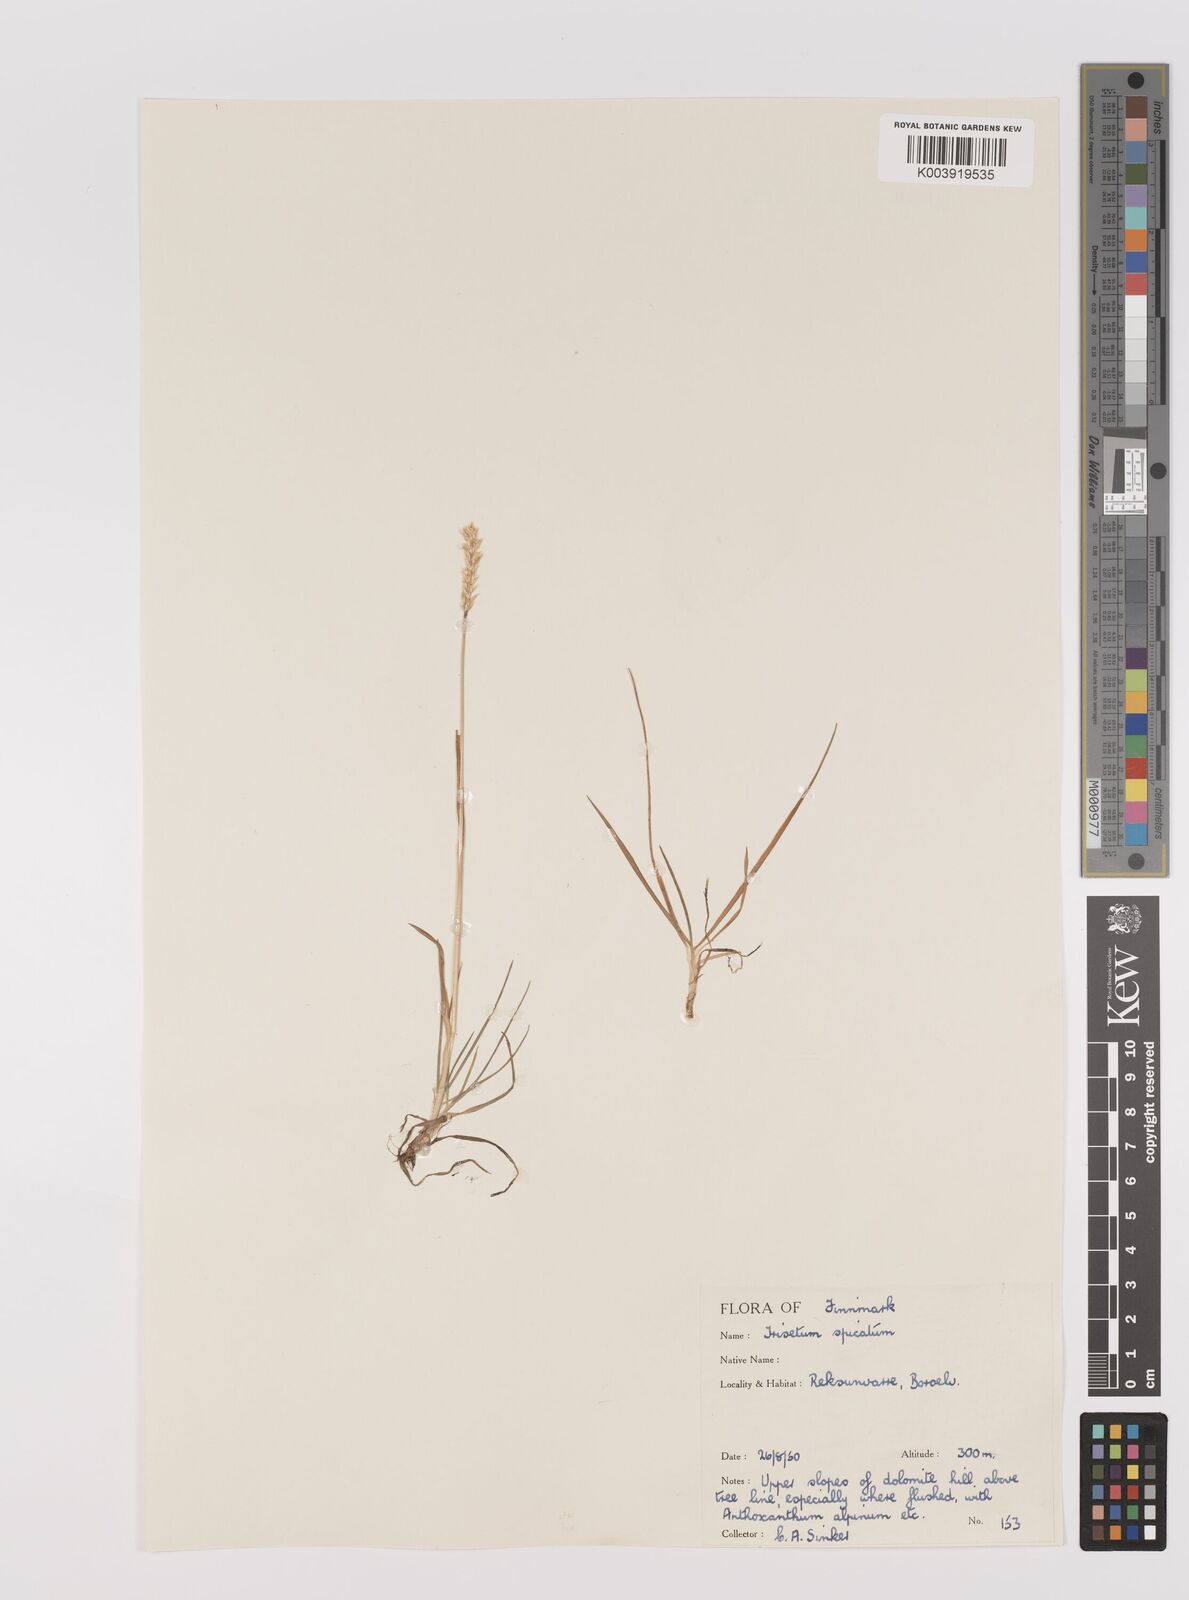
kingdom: Plantae
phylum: Tracheophyta
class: Liliopsida
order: Poales
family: Poaceae
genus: Koeleria
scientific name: Koeleria spicata
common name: Mountain trisetum
